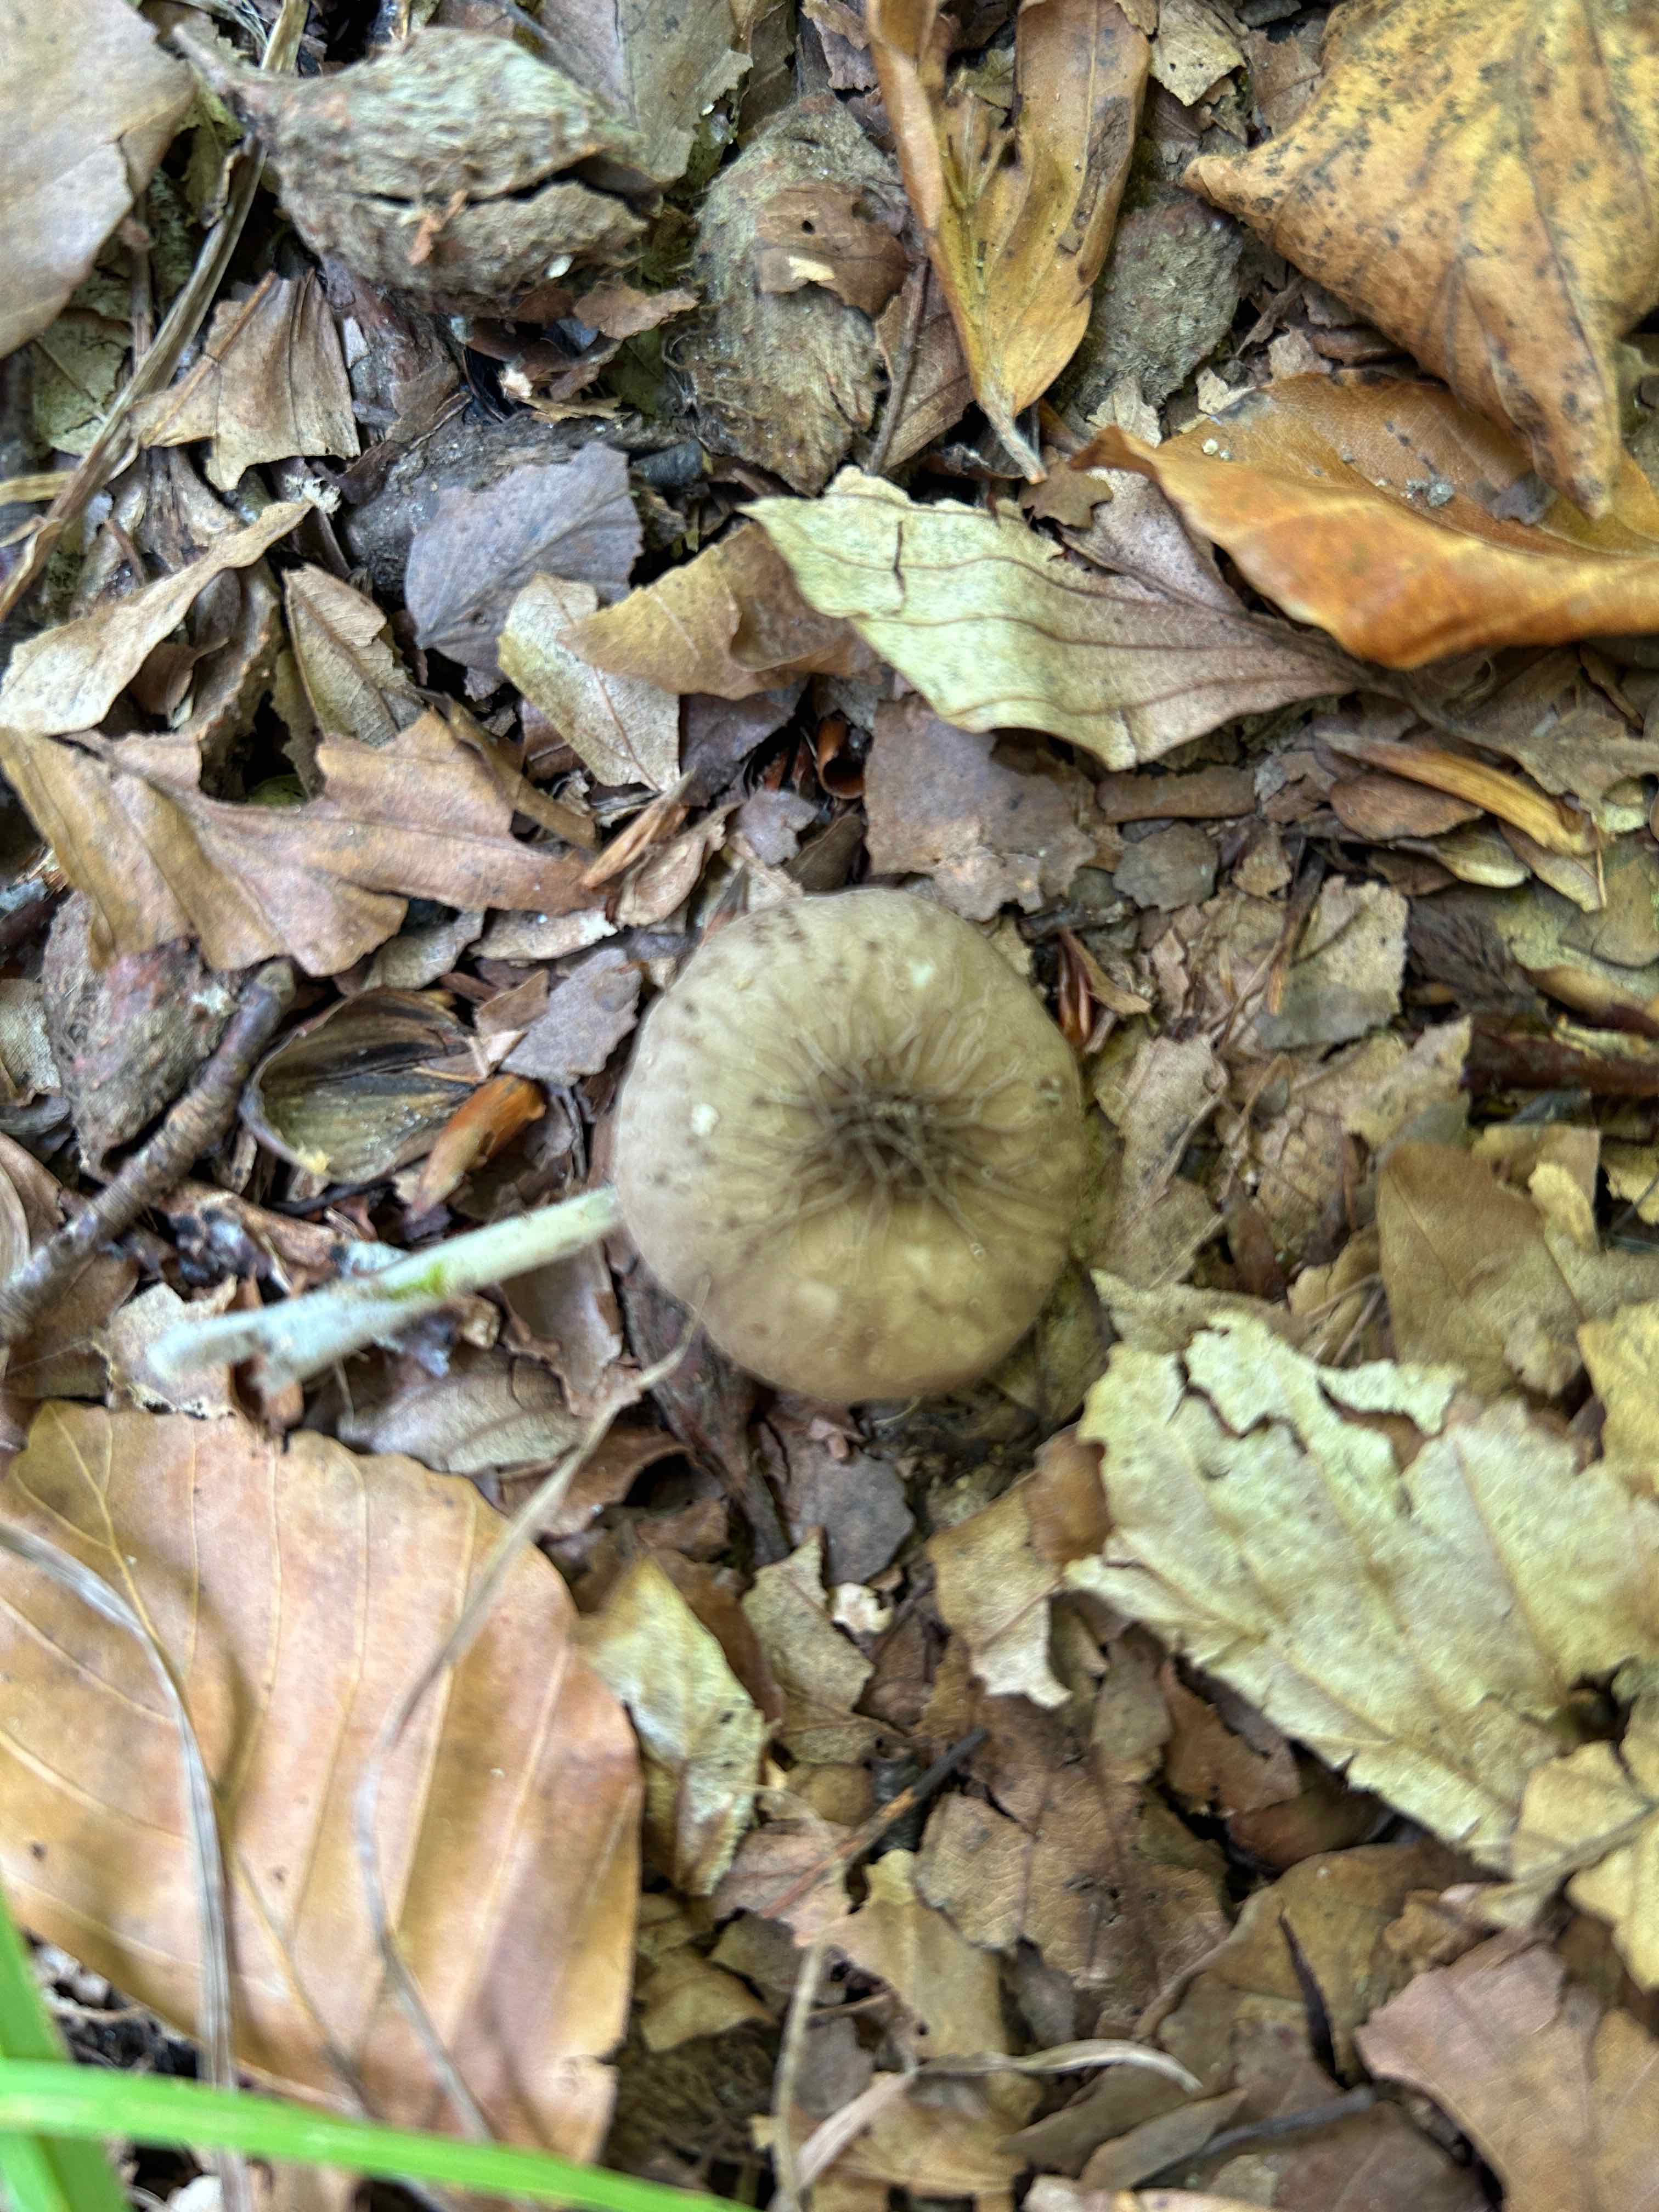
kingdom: Fungi
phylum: Basidiomycota
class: Agaricomycetes
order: Agaricales
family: Pluteaceae
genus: Pluteus
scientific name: Pluteus phlebophorus
